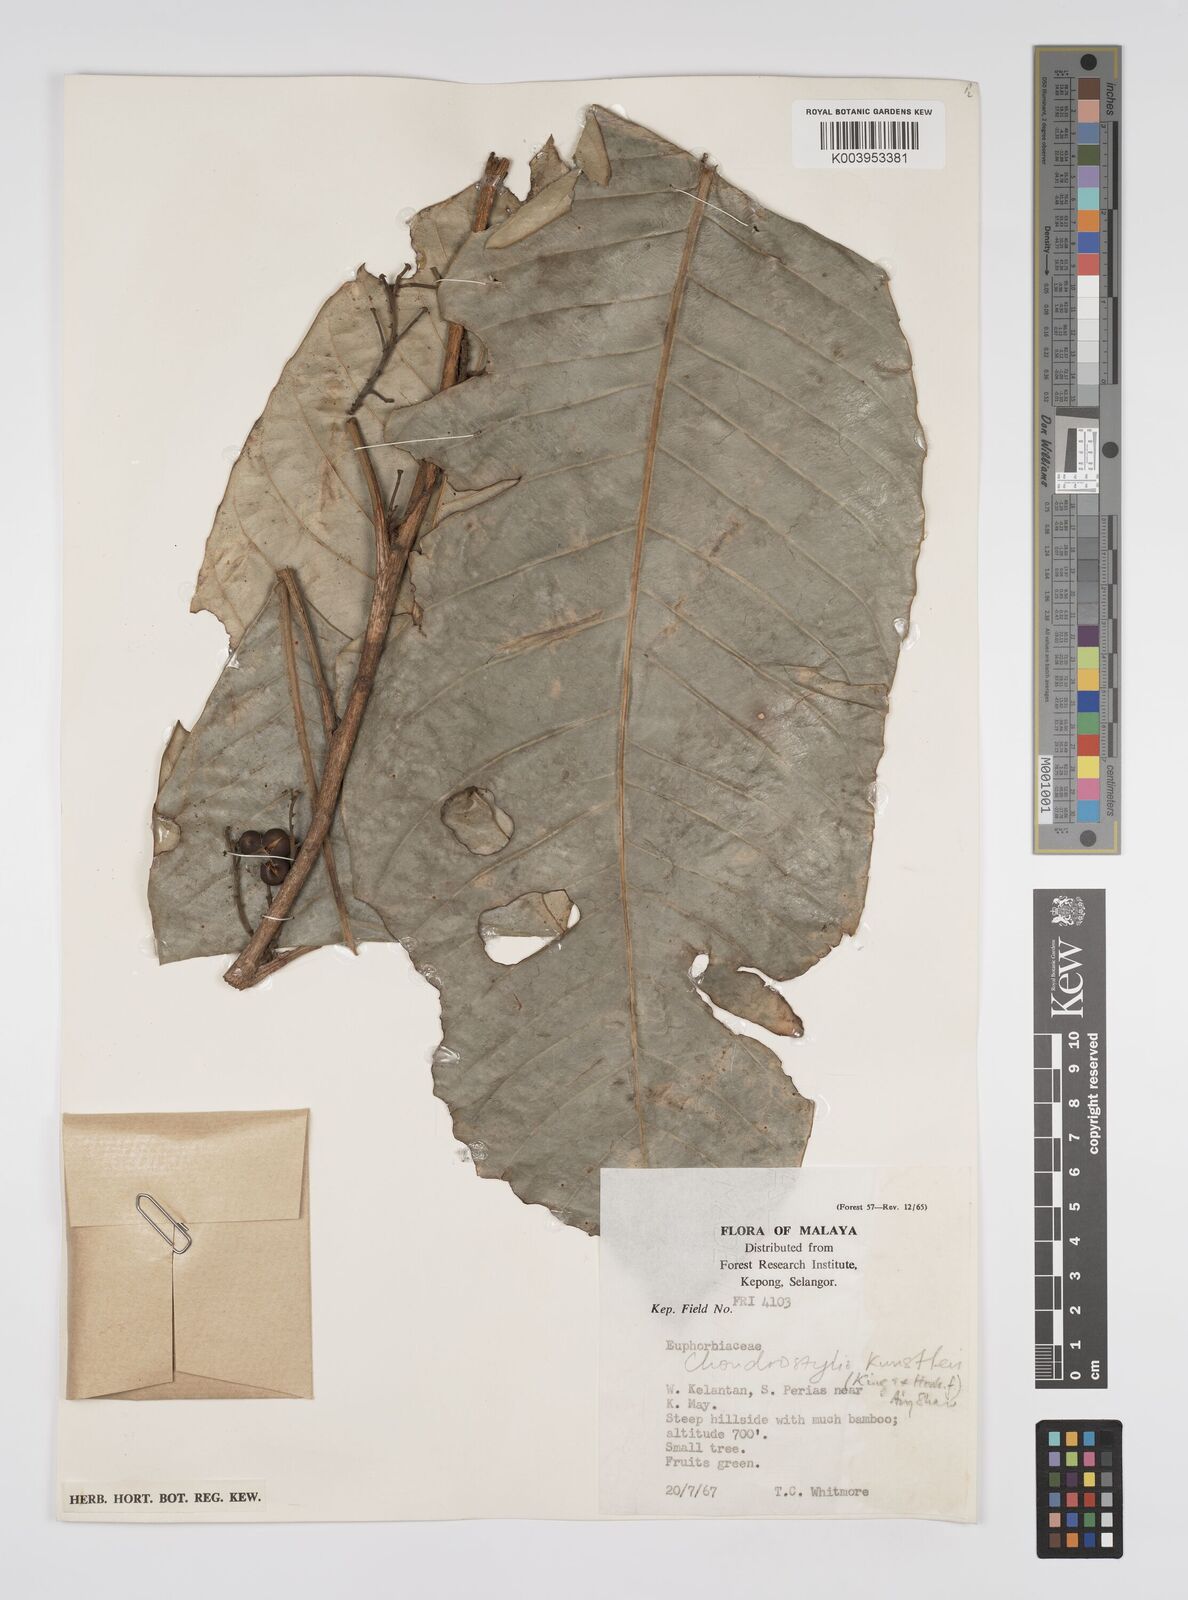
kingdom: Plantae
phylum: Tracheophyta
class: Magnoliopsida
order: Malpighiales
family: Euphorbiaceae
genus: Chondrostylis
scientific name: Chondrostylis kunstleri
